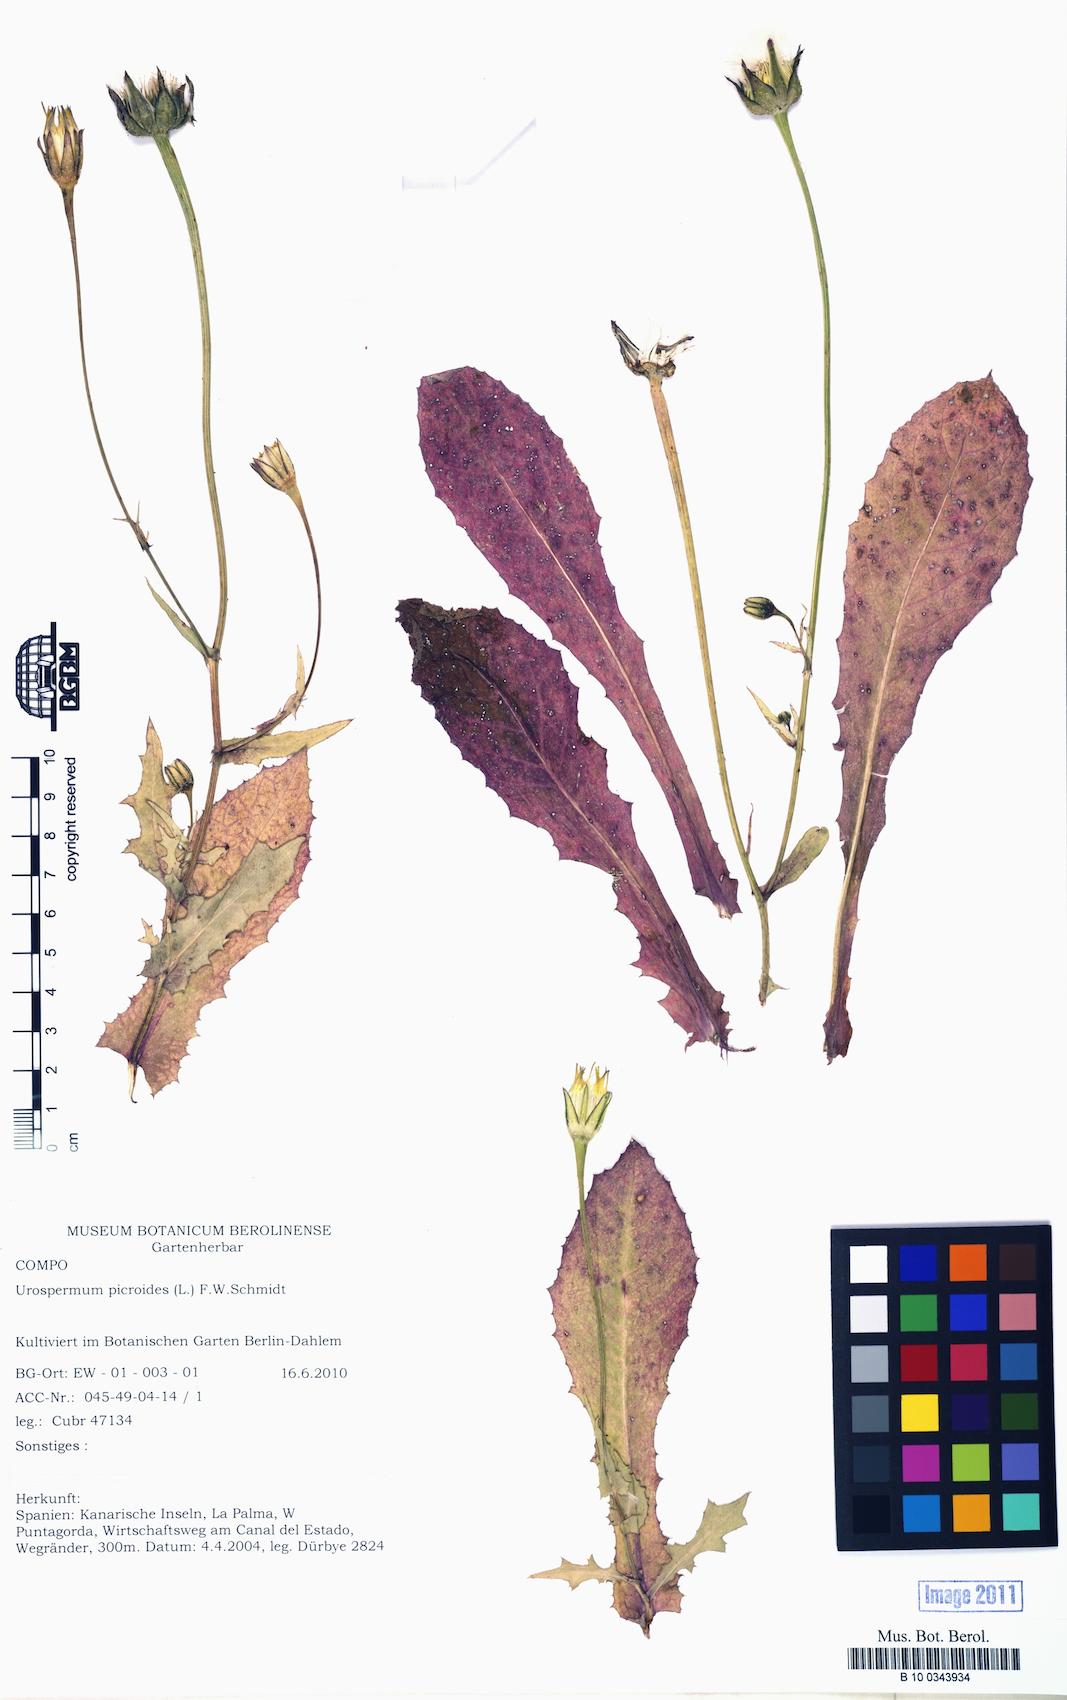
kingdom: Plantae
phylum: Tracheophyta
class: Magnoliopsida
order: Asterales
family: Asteraceae
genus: Urospermum
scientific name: Urospermum picroides
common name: False hawkbit
